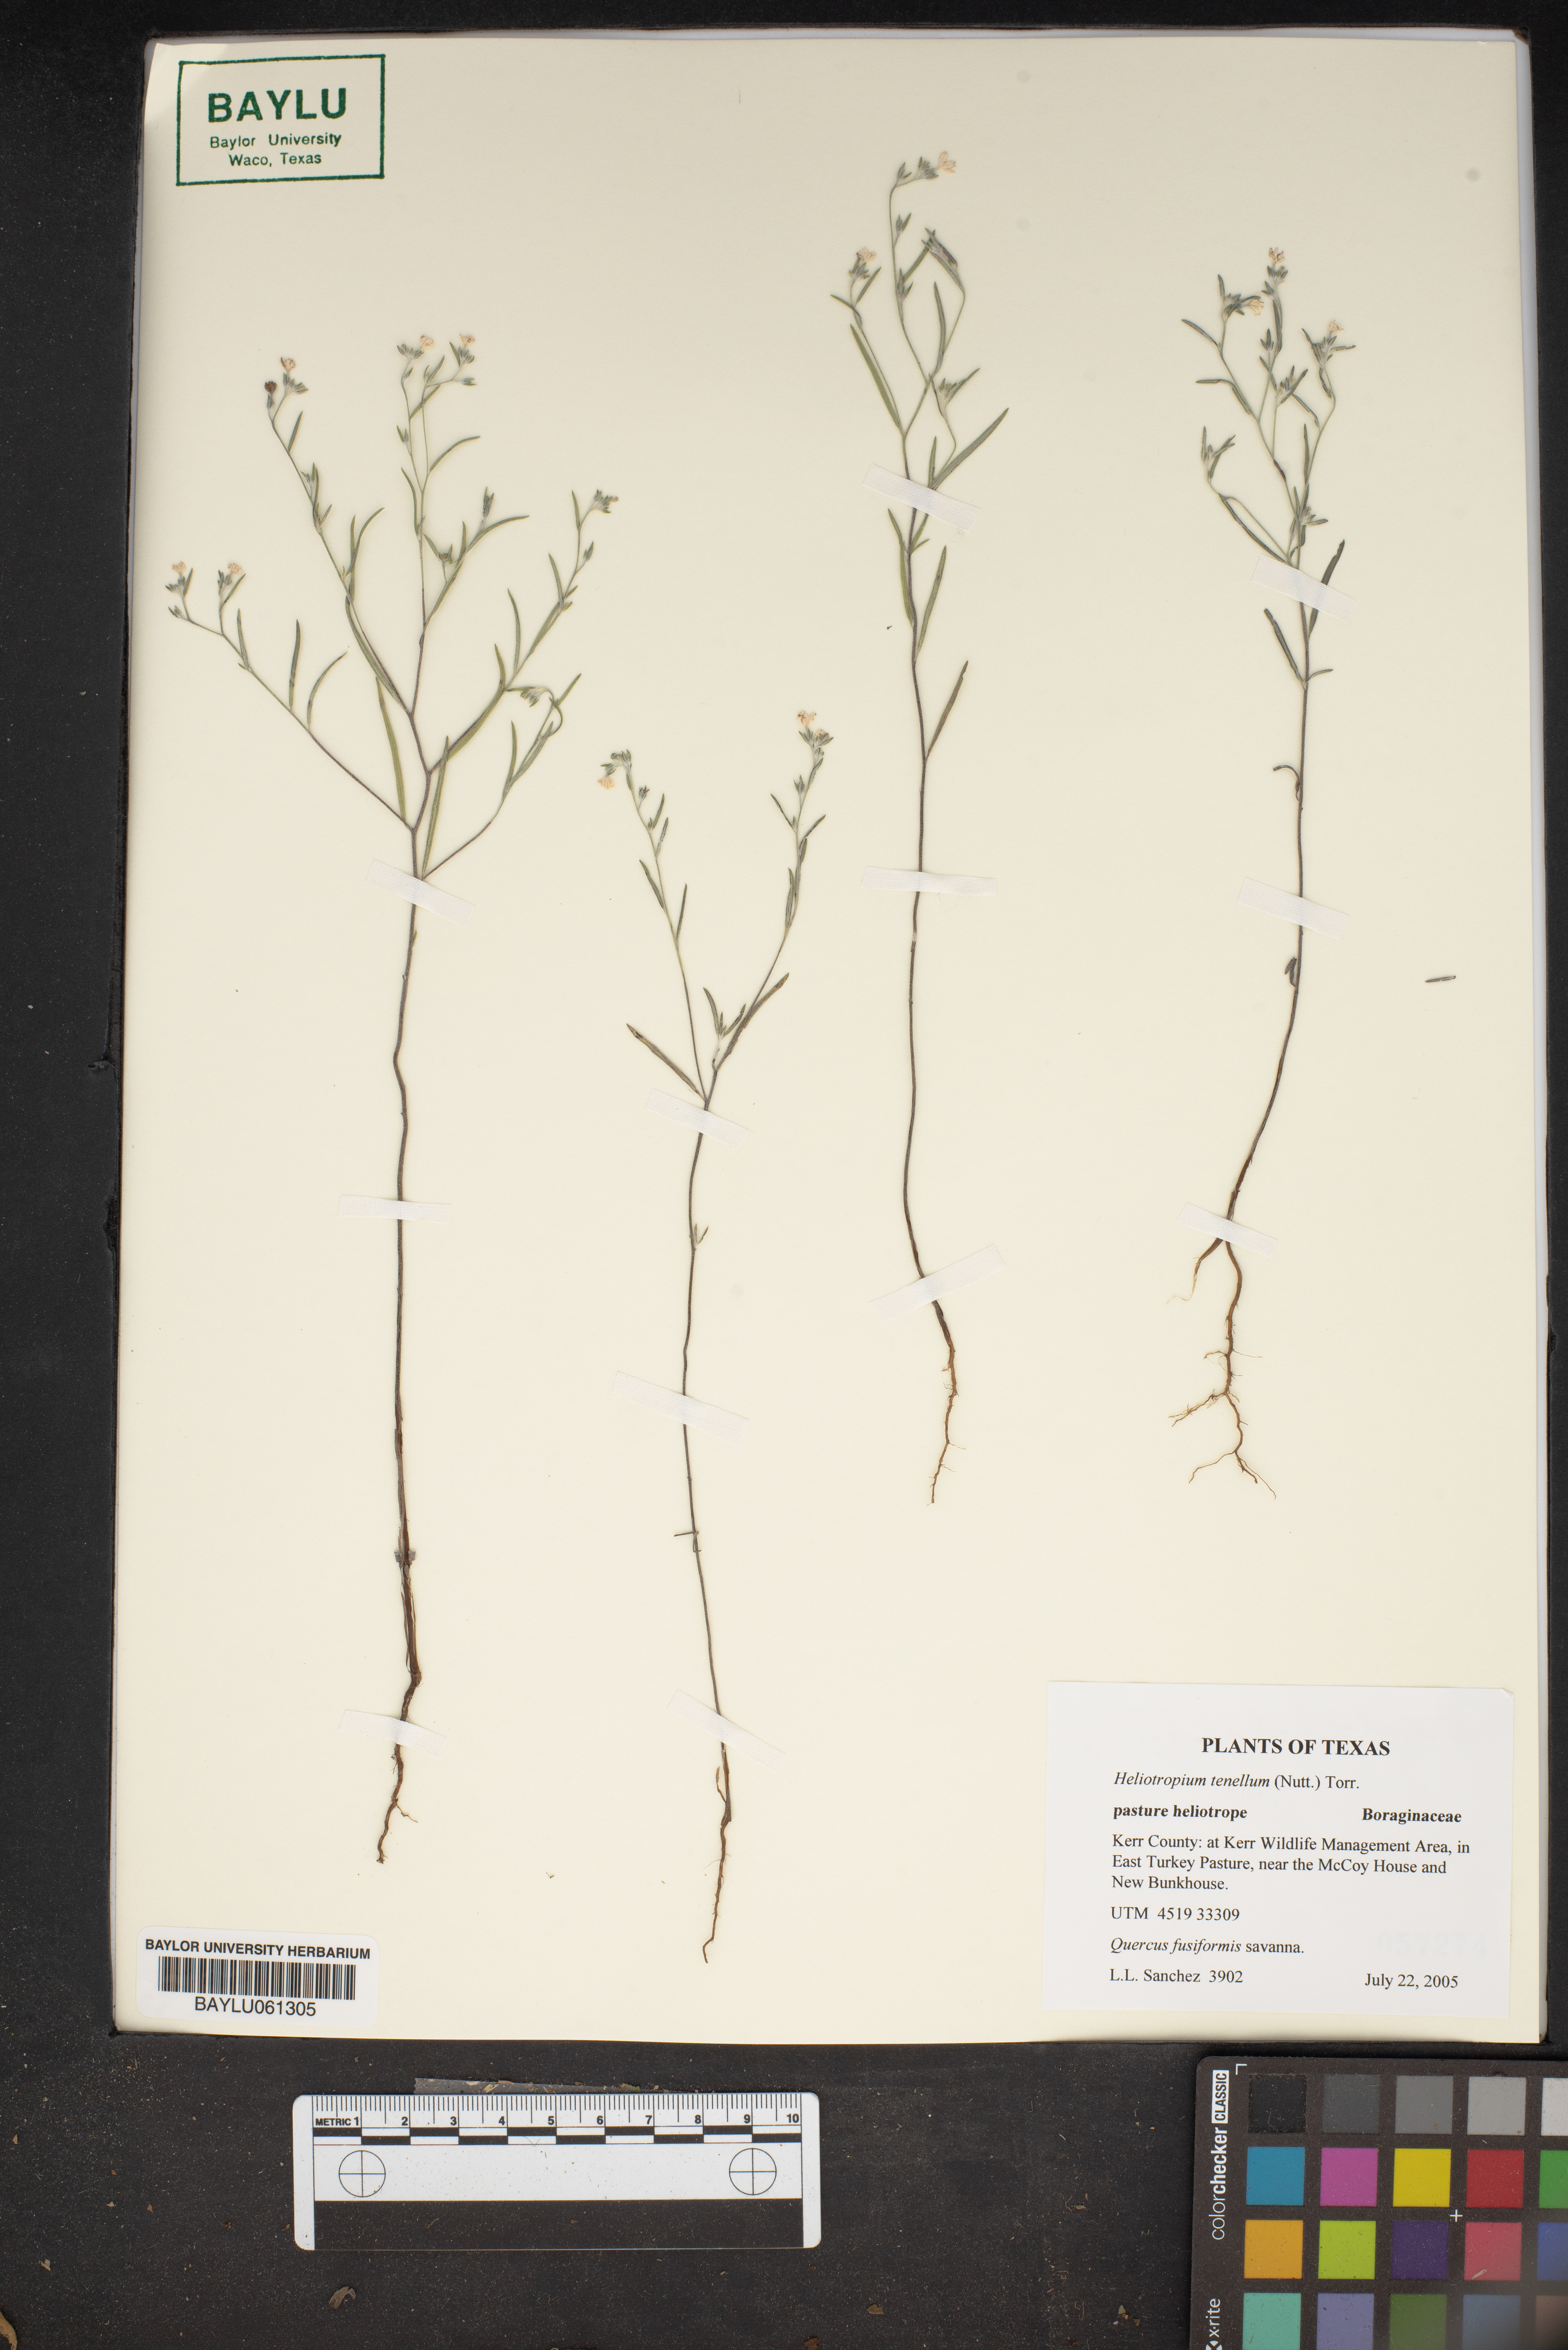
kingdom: Plantae
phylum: Tracheophyta
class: Magnoliopsida
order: Boraginales
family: Heliotropiaceae
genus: Euploca
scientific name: Euploca tenella
